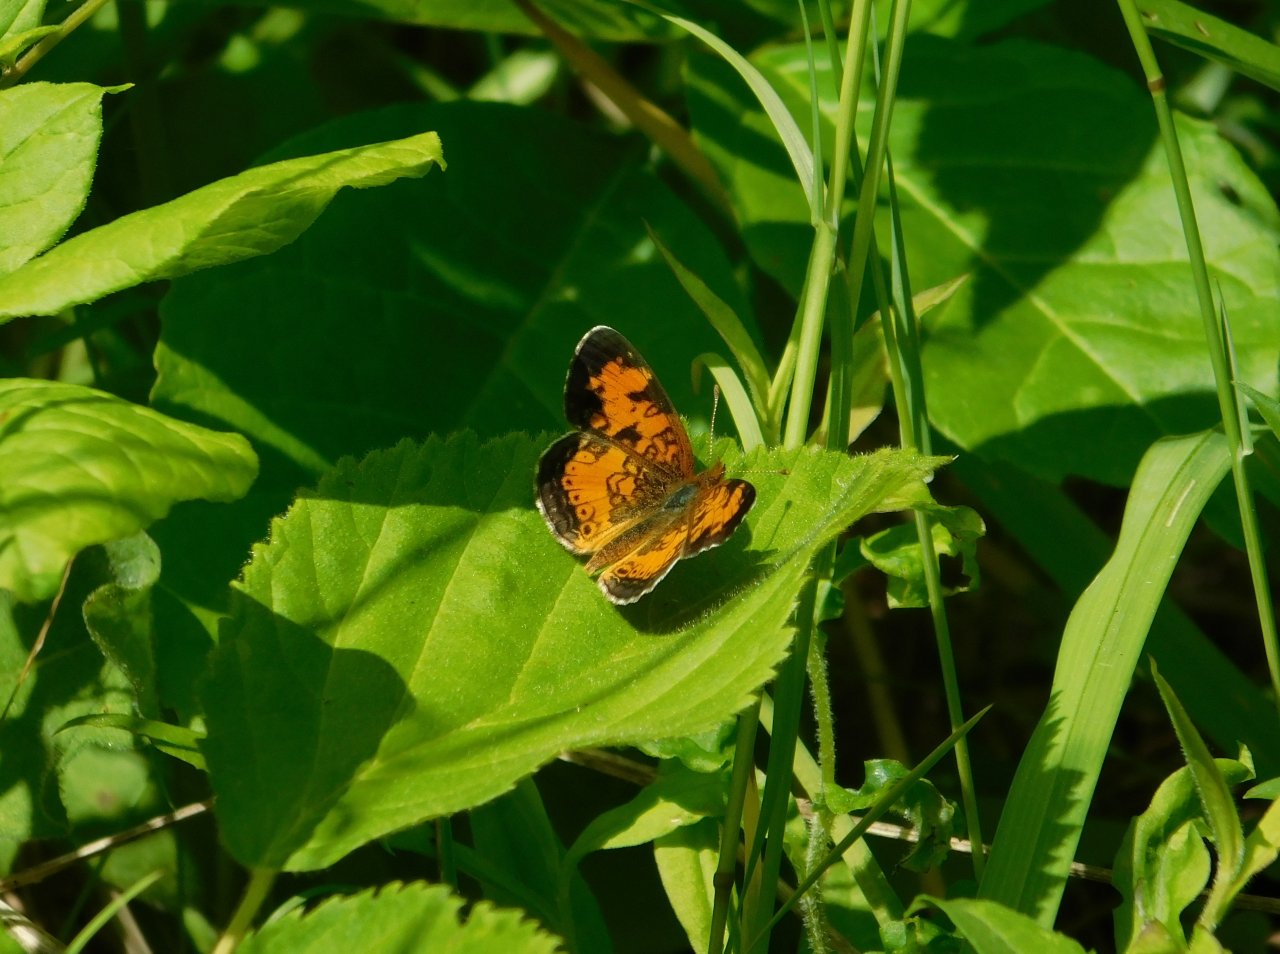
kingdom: Animalia
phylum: Arthropoda
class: Insecta
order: Lepidoptera
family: Nymphalidae
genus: Phyciodes
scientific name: Phyciodes tharos
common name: Northern Crescent
